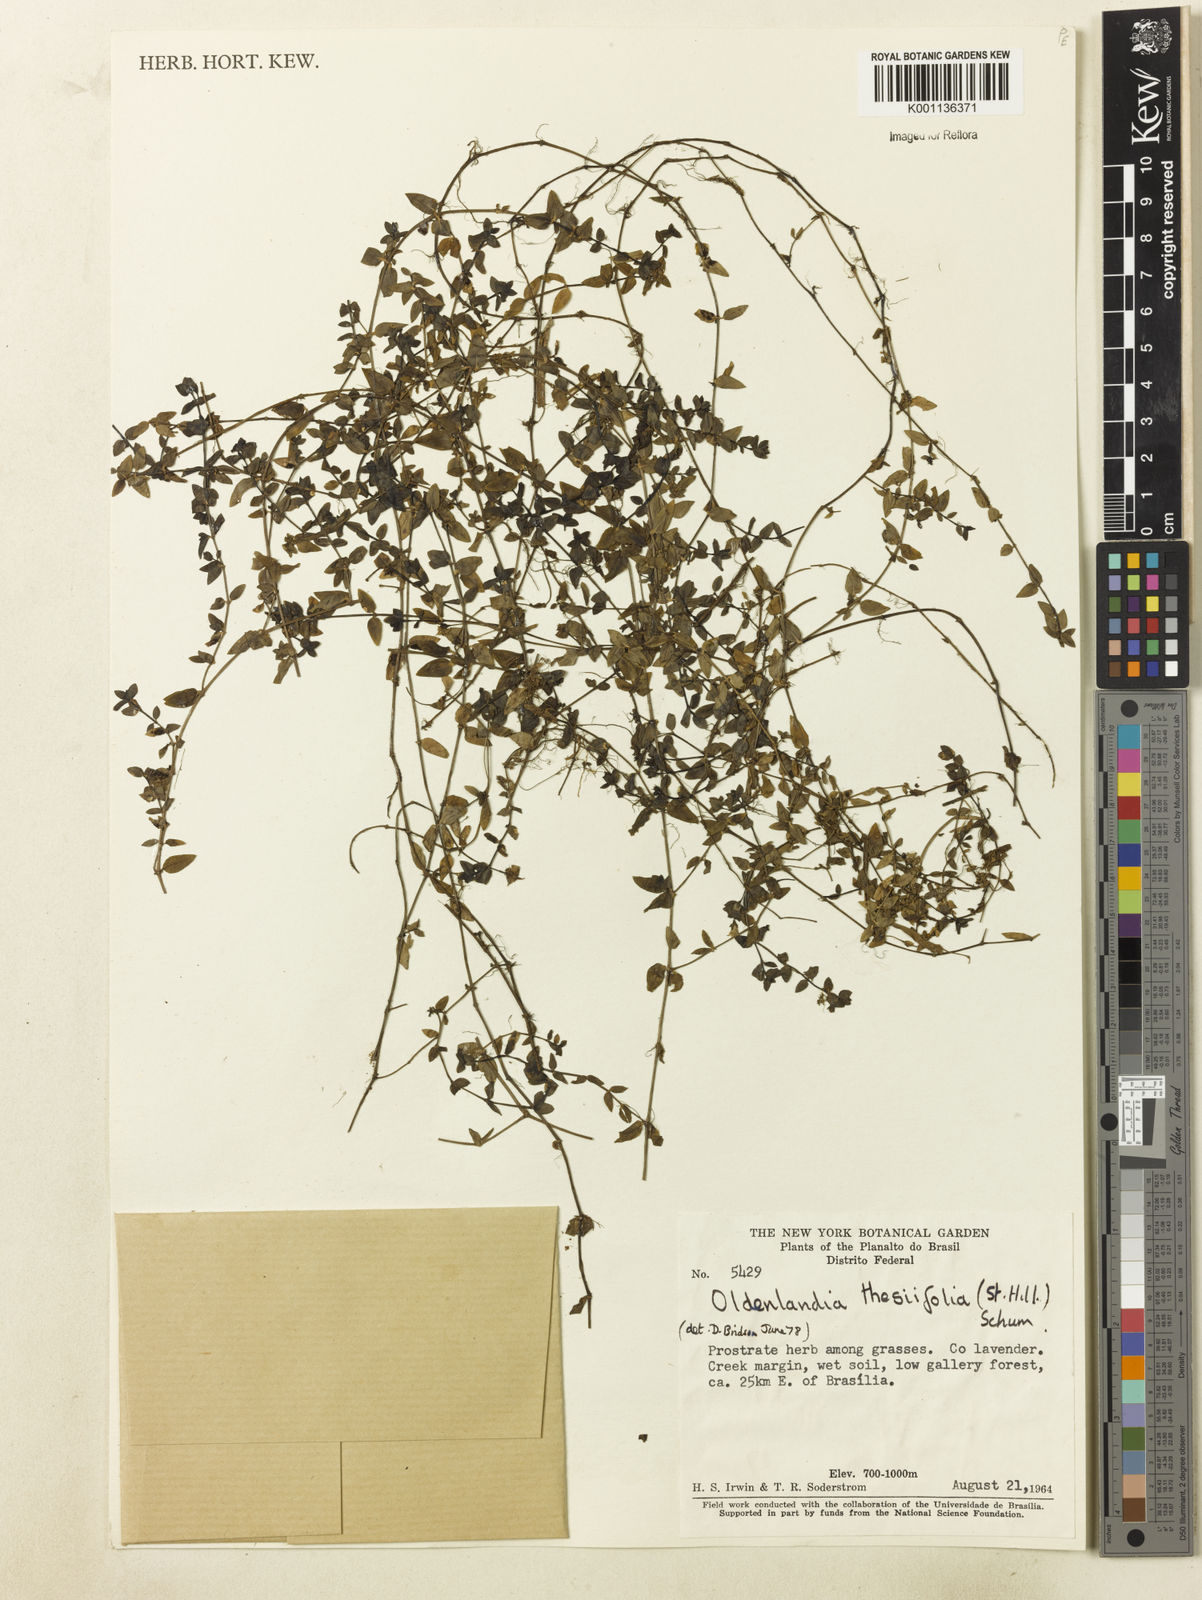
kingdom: Plantae
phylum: Tracheophyta
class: Magnoliopsida
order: Gentianales
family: Rubiaceae
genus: Oldenlandia
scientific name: Oldenlandia salzmannii
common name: Salzmann's mille graines
